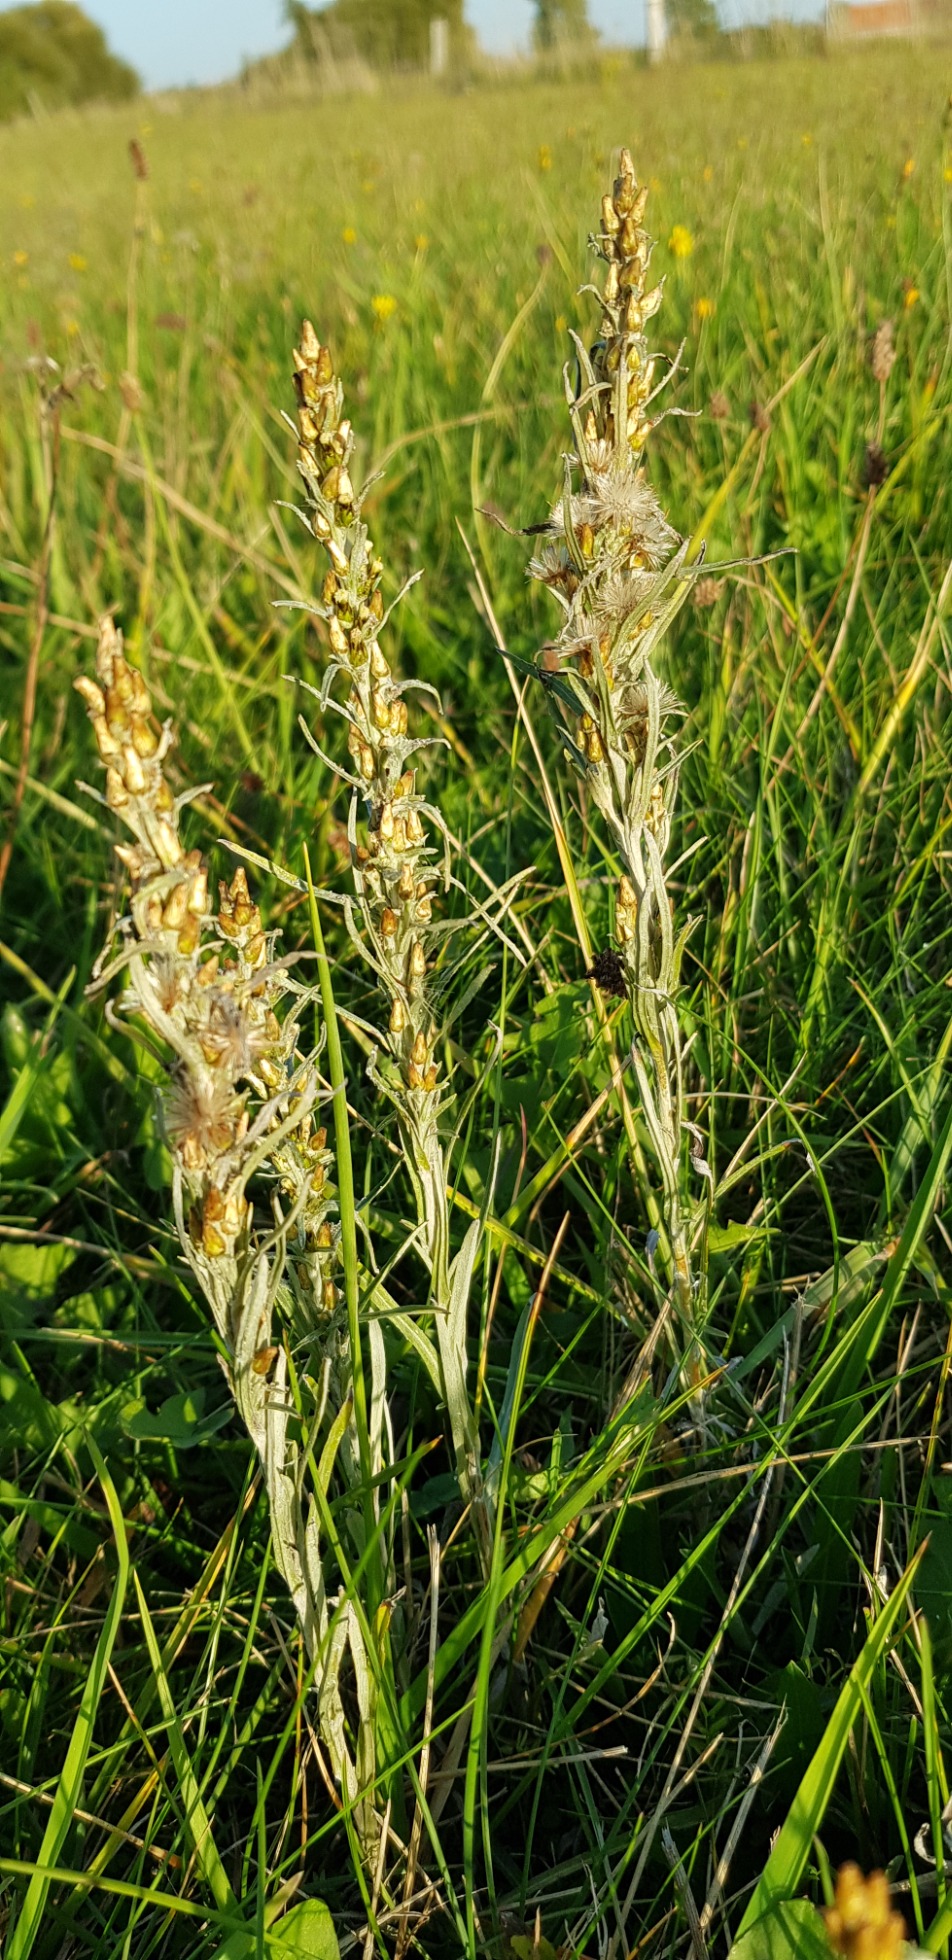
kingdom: Plantae
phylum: Tracheophyta
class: Magnoliopsida
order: Asterales
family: Asteraceae
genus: Omalotheca
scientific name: Omalotheca sylvatica
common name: Rank evighedsblomst
